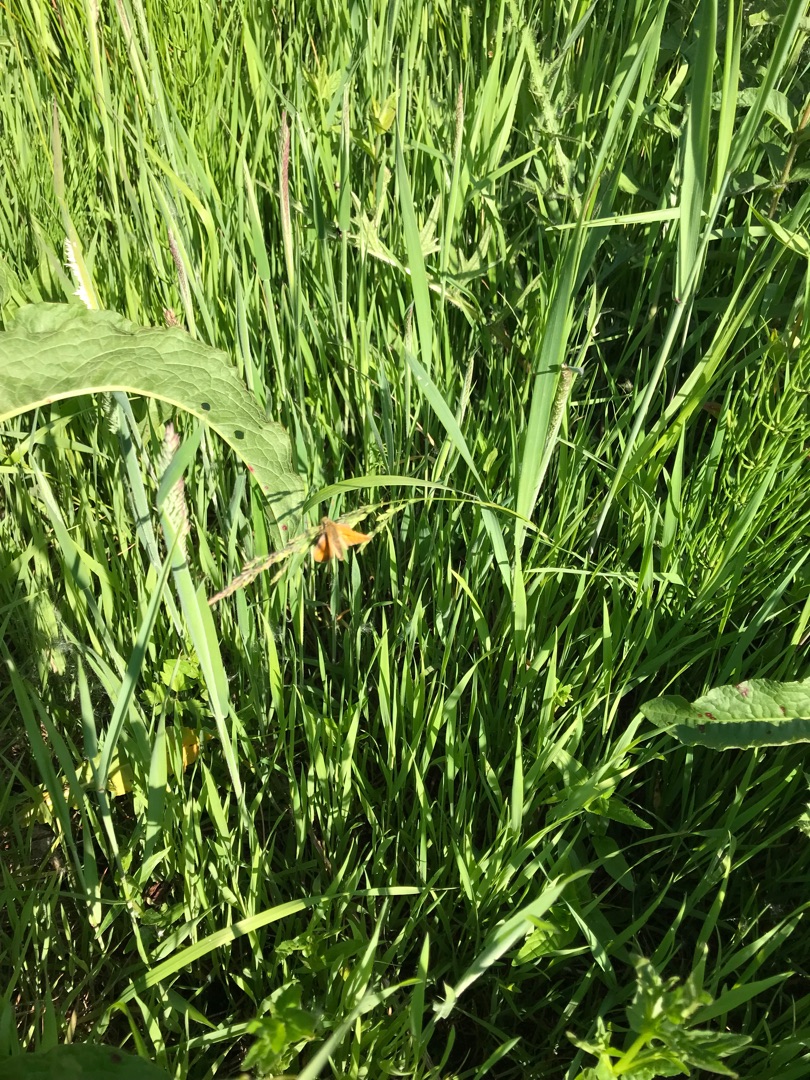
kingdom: Animalia
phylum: Arthropoda
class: Insecta
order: Lepidoptera
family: Hesperiidae
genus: Ochlodes
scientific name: Ochlodes venata
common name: Stor bredpande
